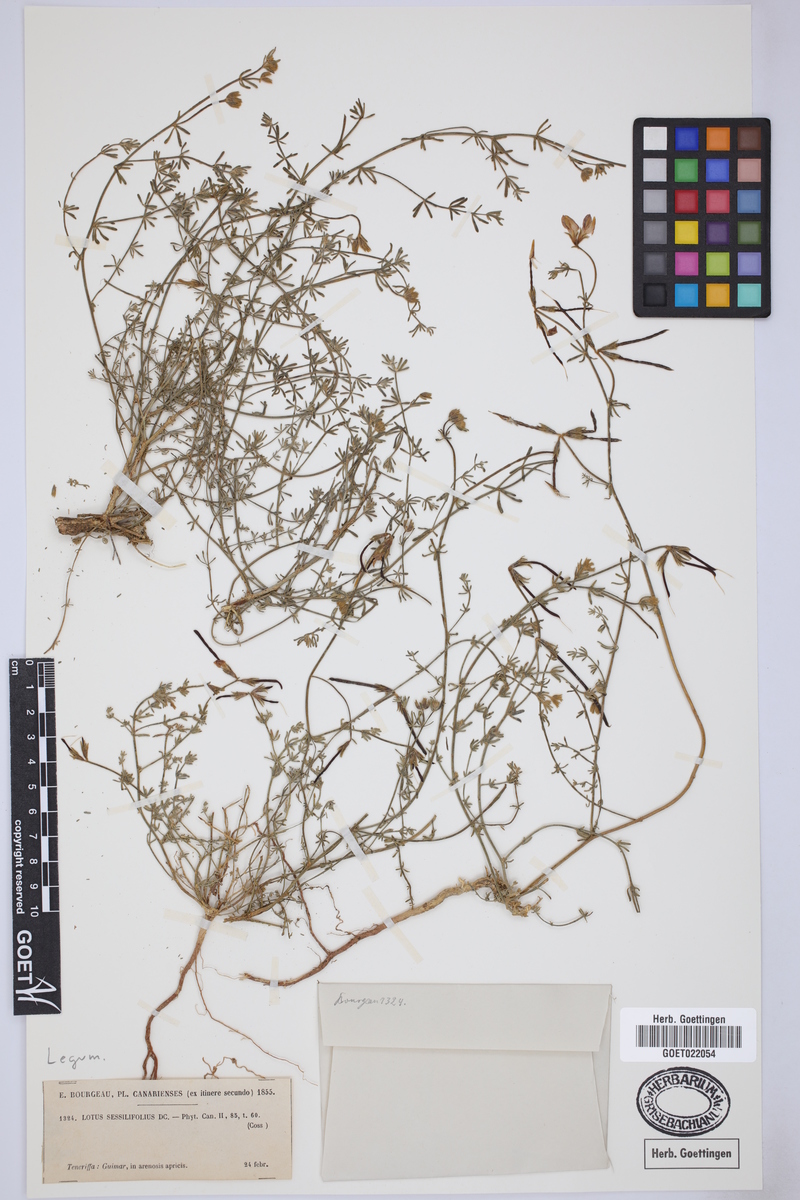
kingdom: Plantae
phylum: Tracheophyta
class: Magnoliopsida
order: Fabales
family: Fabaceae
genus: Lotus
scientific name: Lotus sessilifolius
